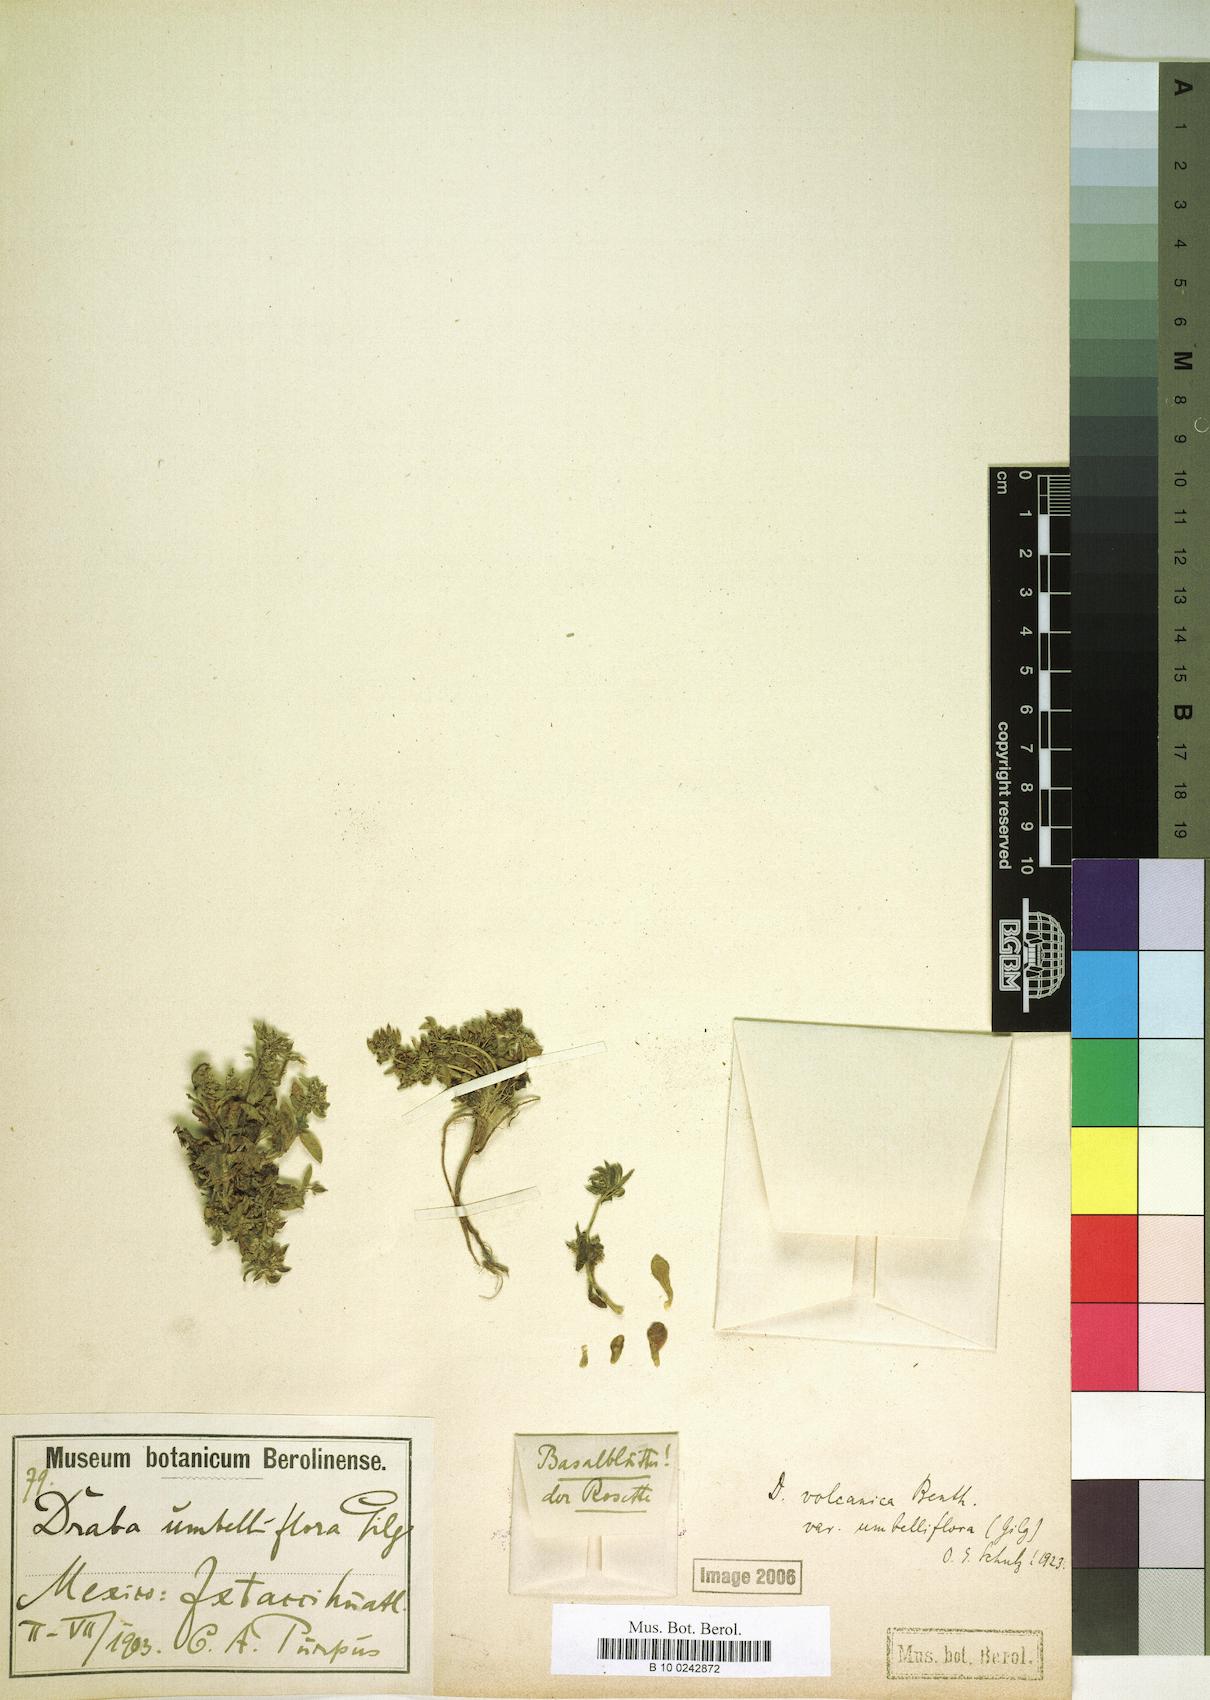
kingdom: Plantae
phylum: Tracheophyta
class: Magnoliopsida
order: Brassicales
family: Brassicaceae
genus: Draba
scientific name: Draba jorullensis
